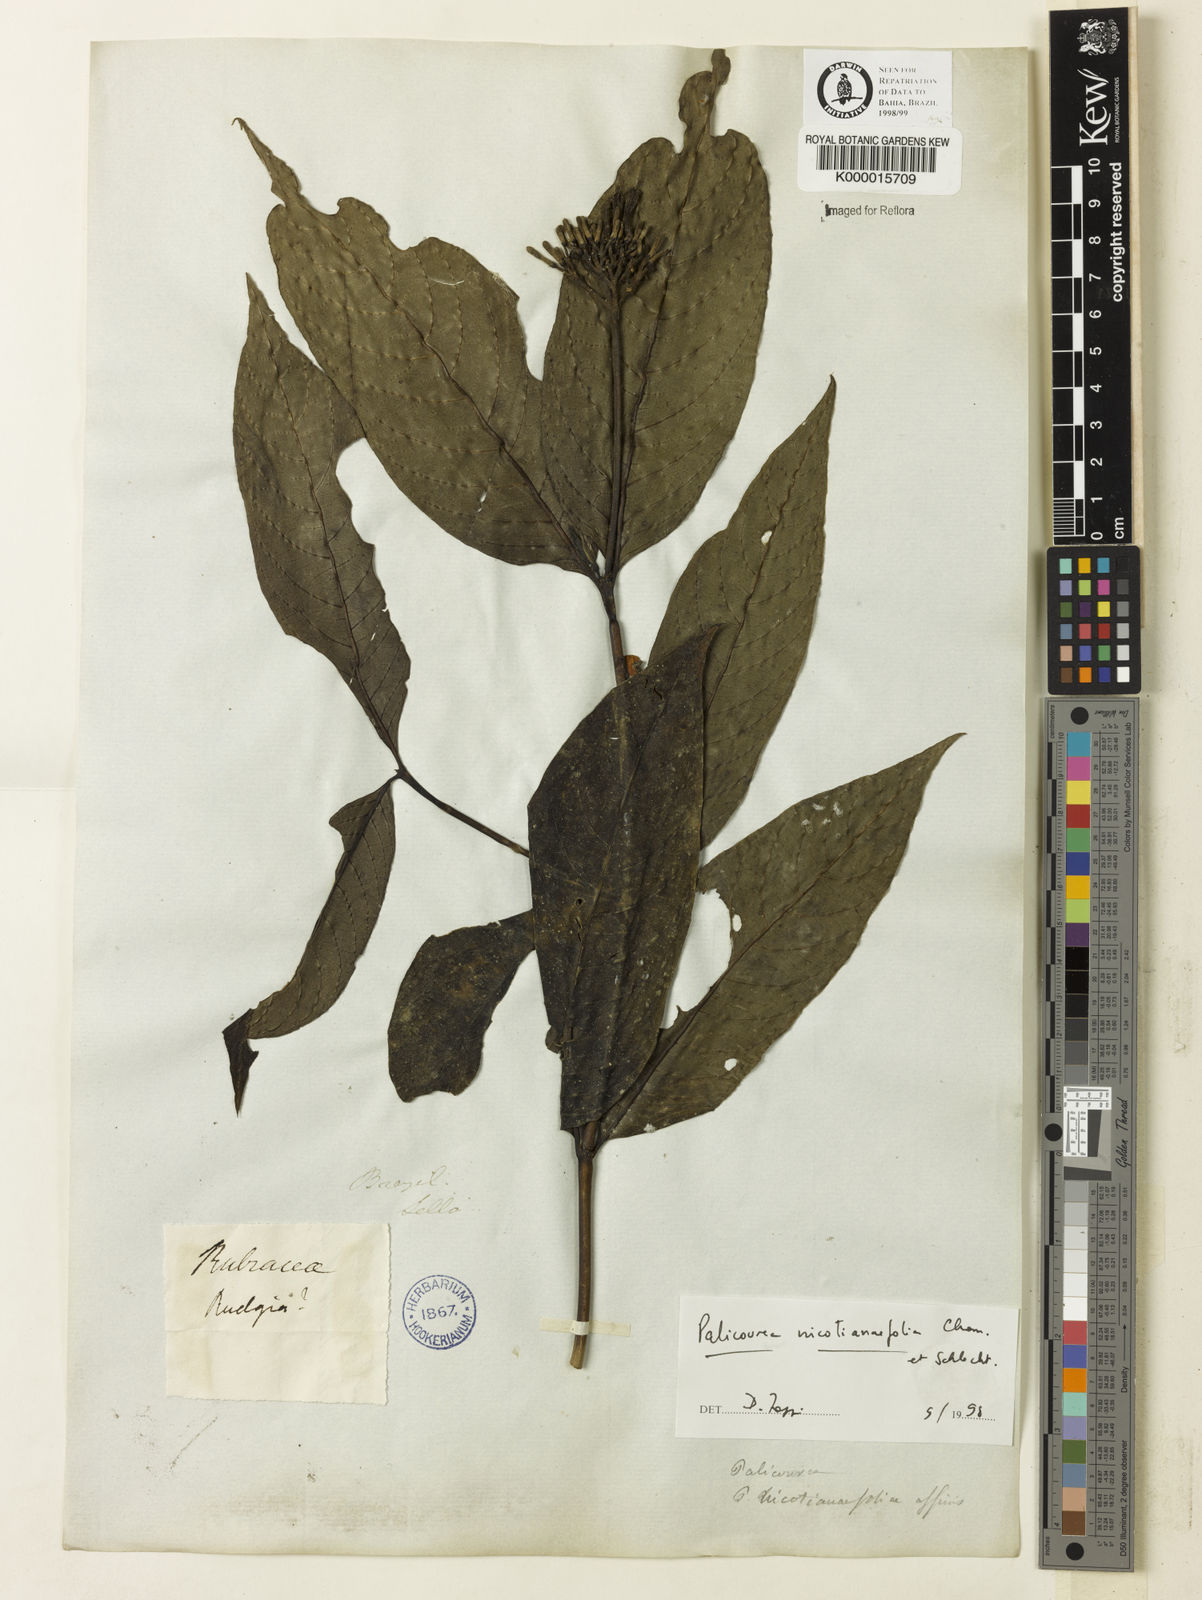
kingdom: Plantae
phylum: Tracheophyta
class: Magnoliopsida
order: Gentianales
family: Rubiaceae
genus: Palicourea
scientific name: Palicourea macrobotrys
